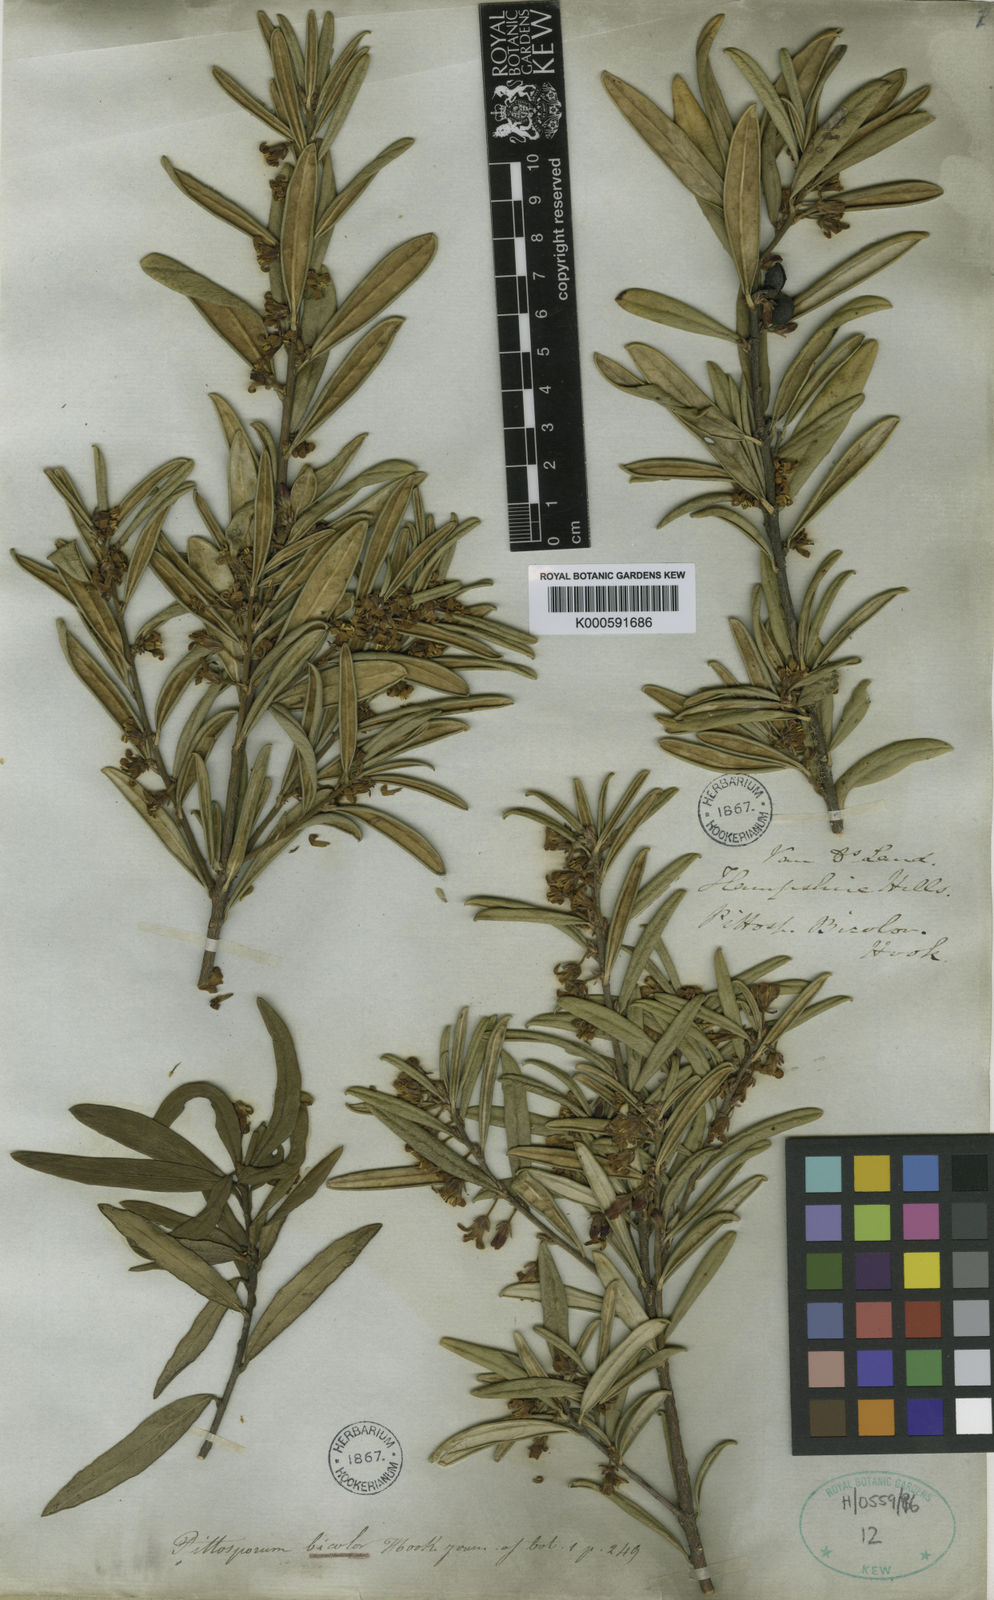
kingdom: Plantae
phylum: Tracheophyta
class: Magnoliopsida
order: Apiales
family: Pittosporaceae
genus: Pittosporum
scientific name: Pittosporum bicolor
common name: Tallowwood
